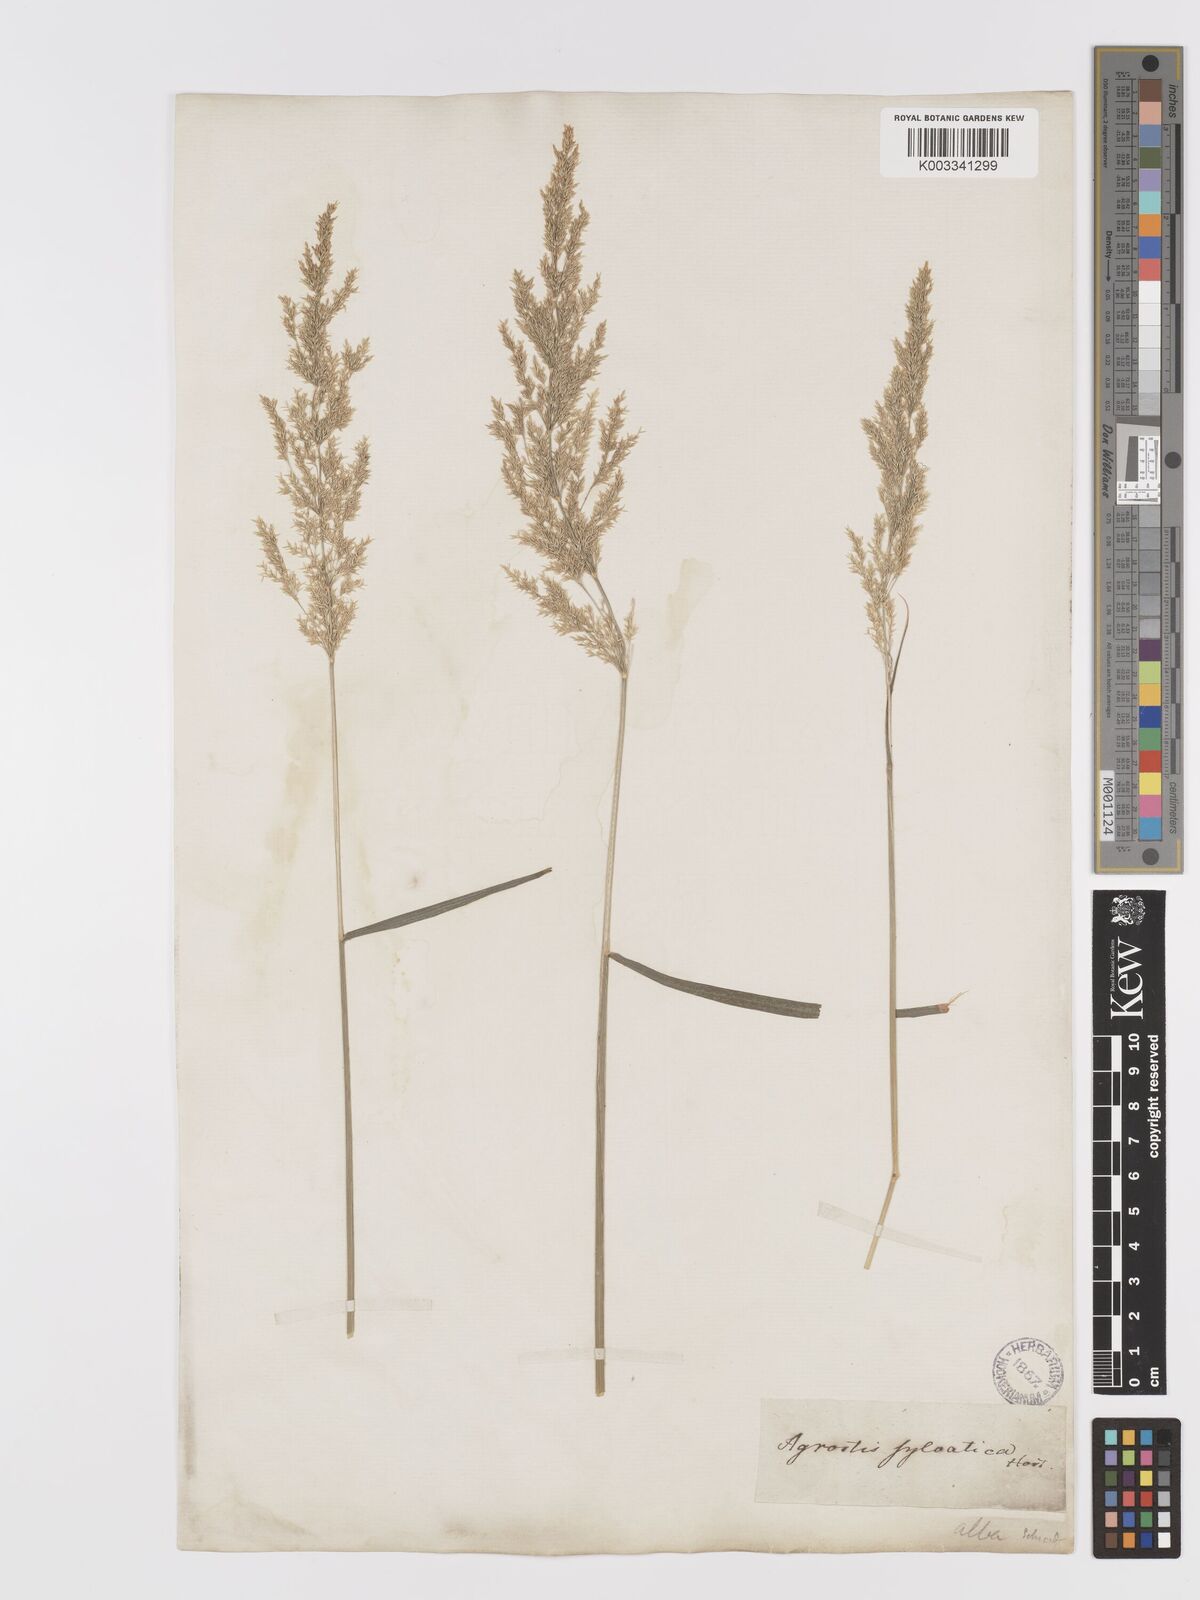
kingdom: Plantae
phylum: Tracheophyta
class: Liliopsida
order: Poales
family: Poaceae
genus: Agrostis
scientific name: Agrostis gigantea
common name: Black bent
